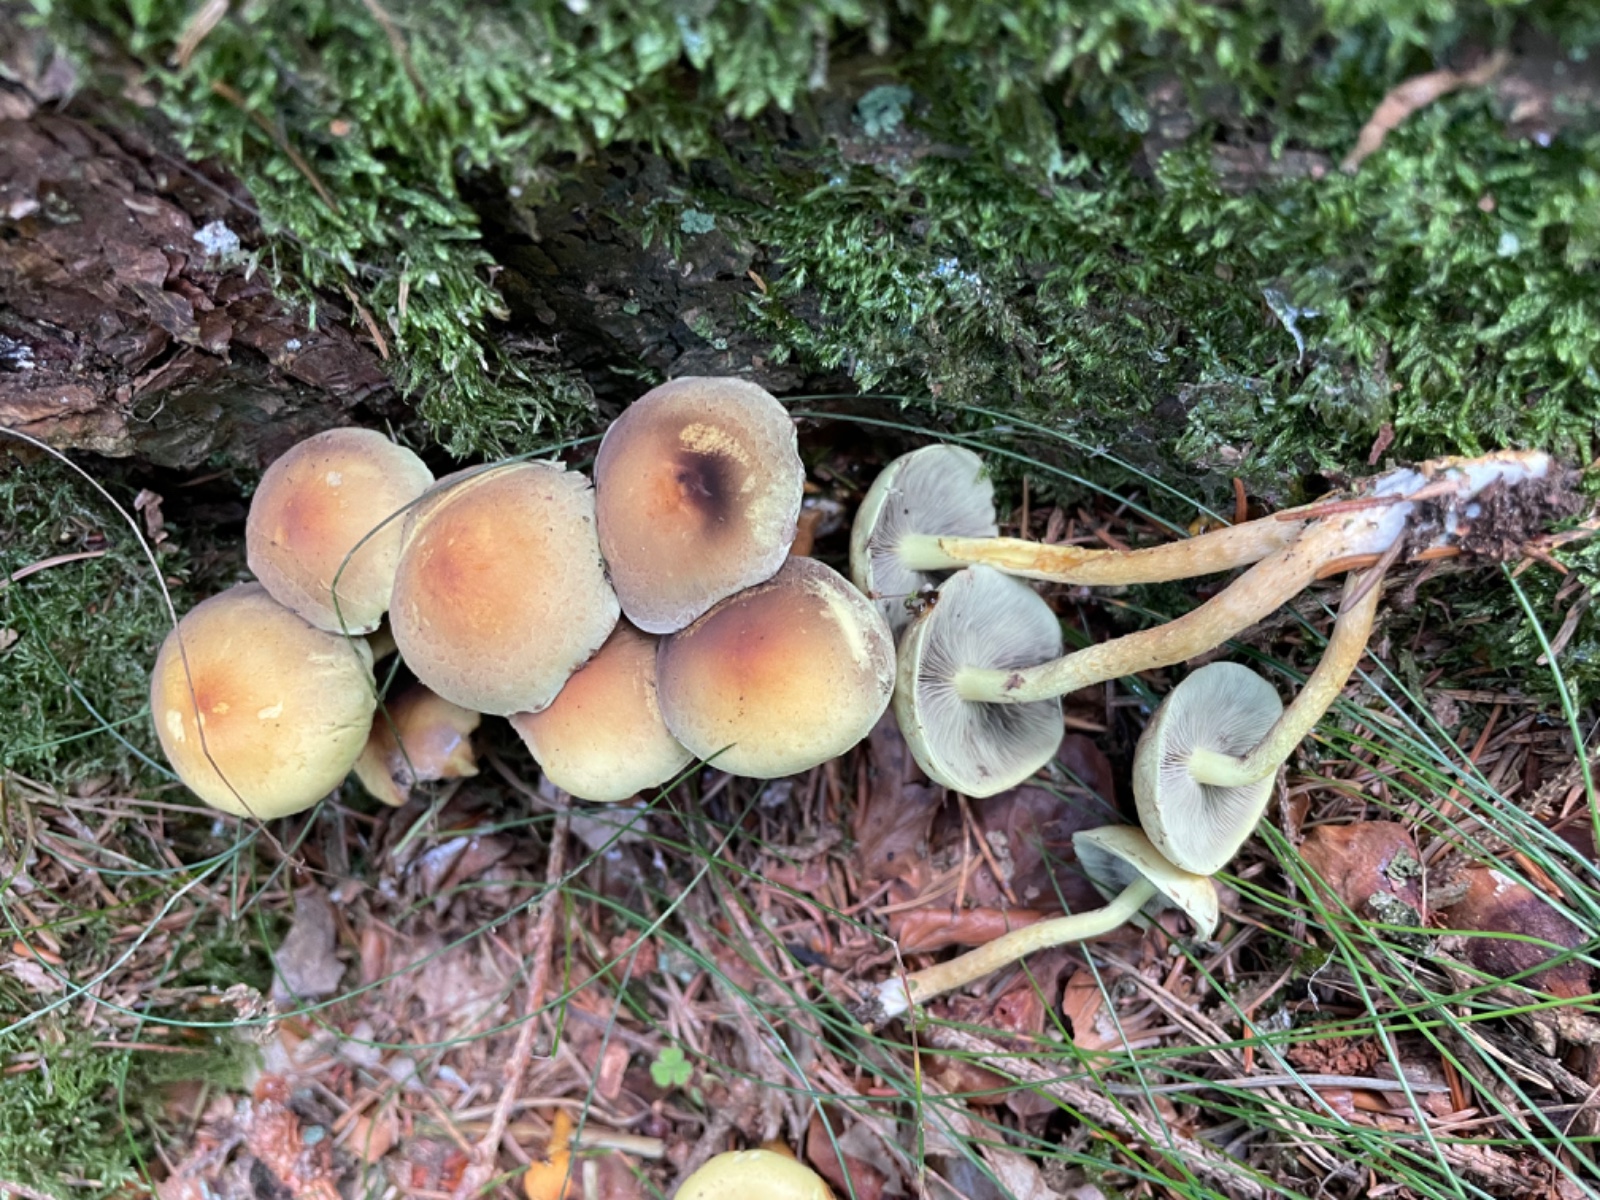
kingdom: Fungi
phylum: Basidiomycota
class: Agaricomycetes
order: Agaricales
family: Strophariaceae
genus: Hypholoma
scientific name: Hypholoma fasciculare
